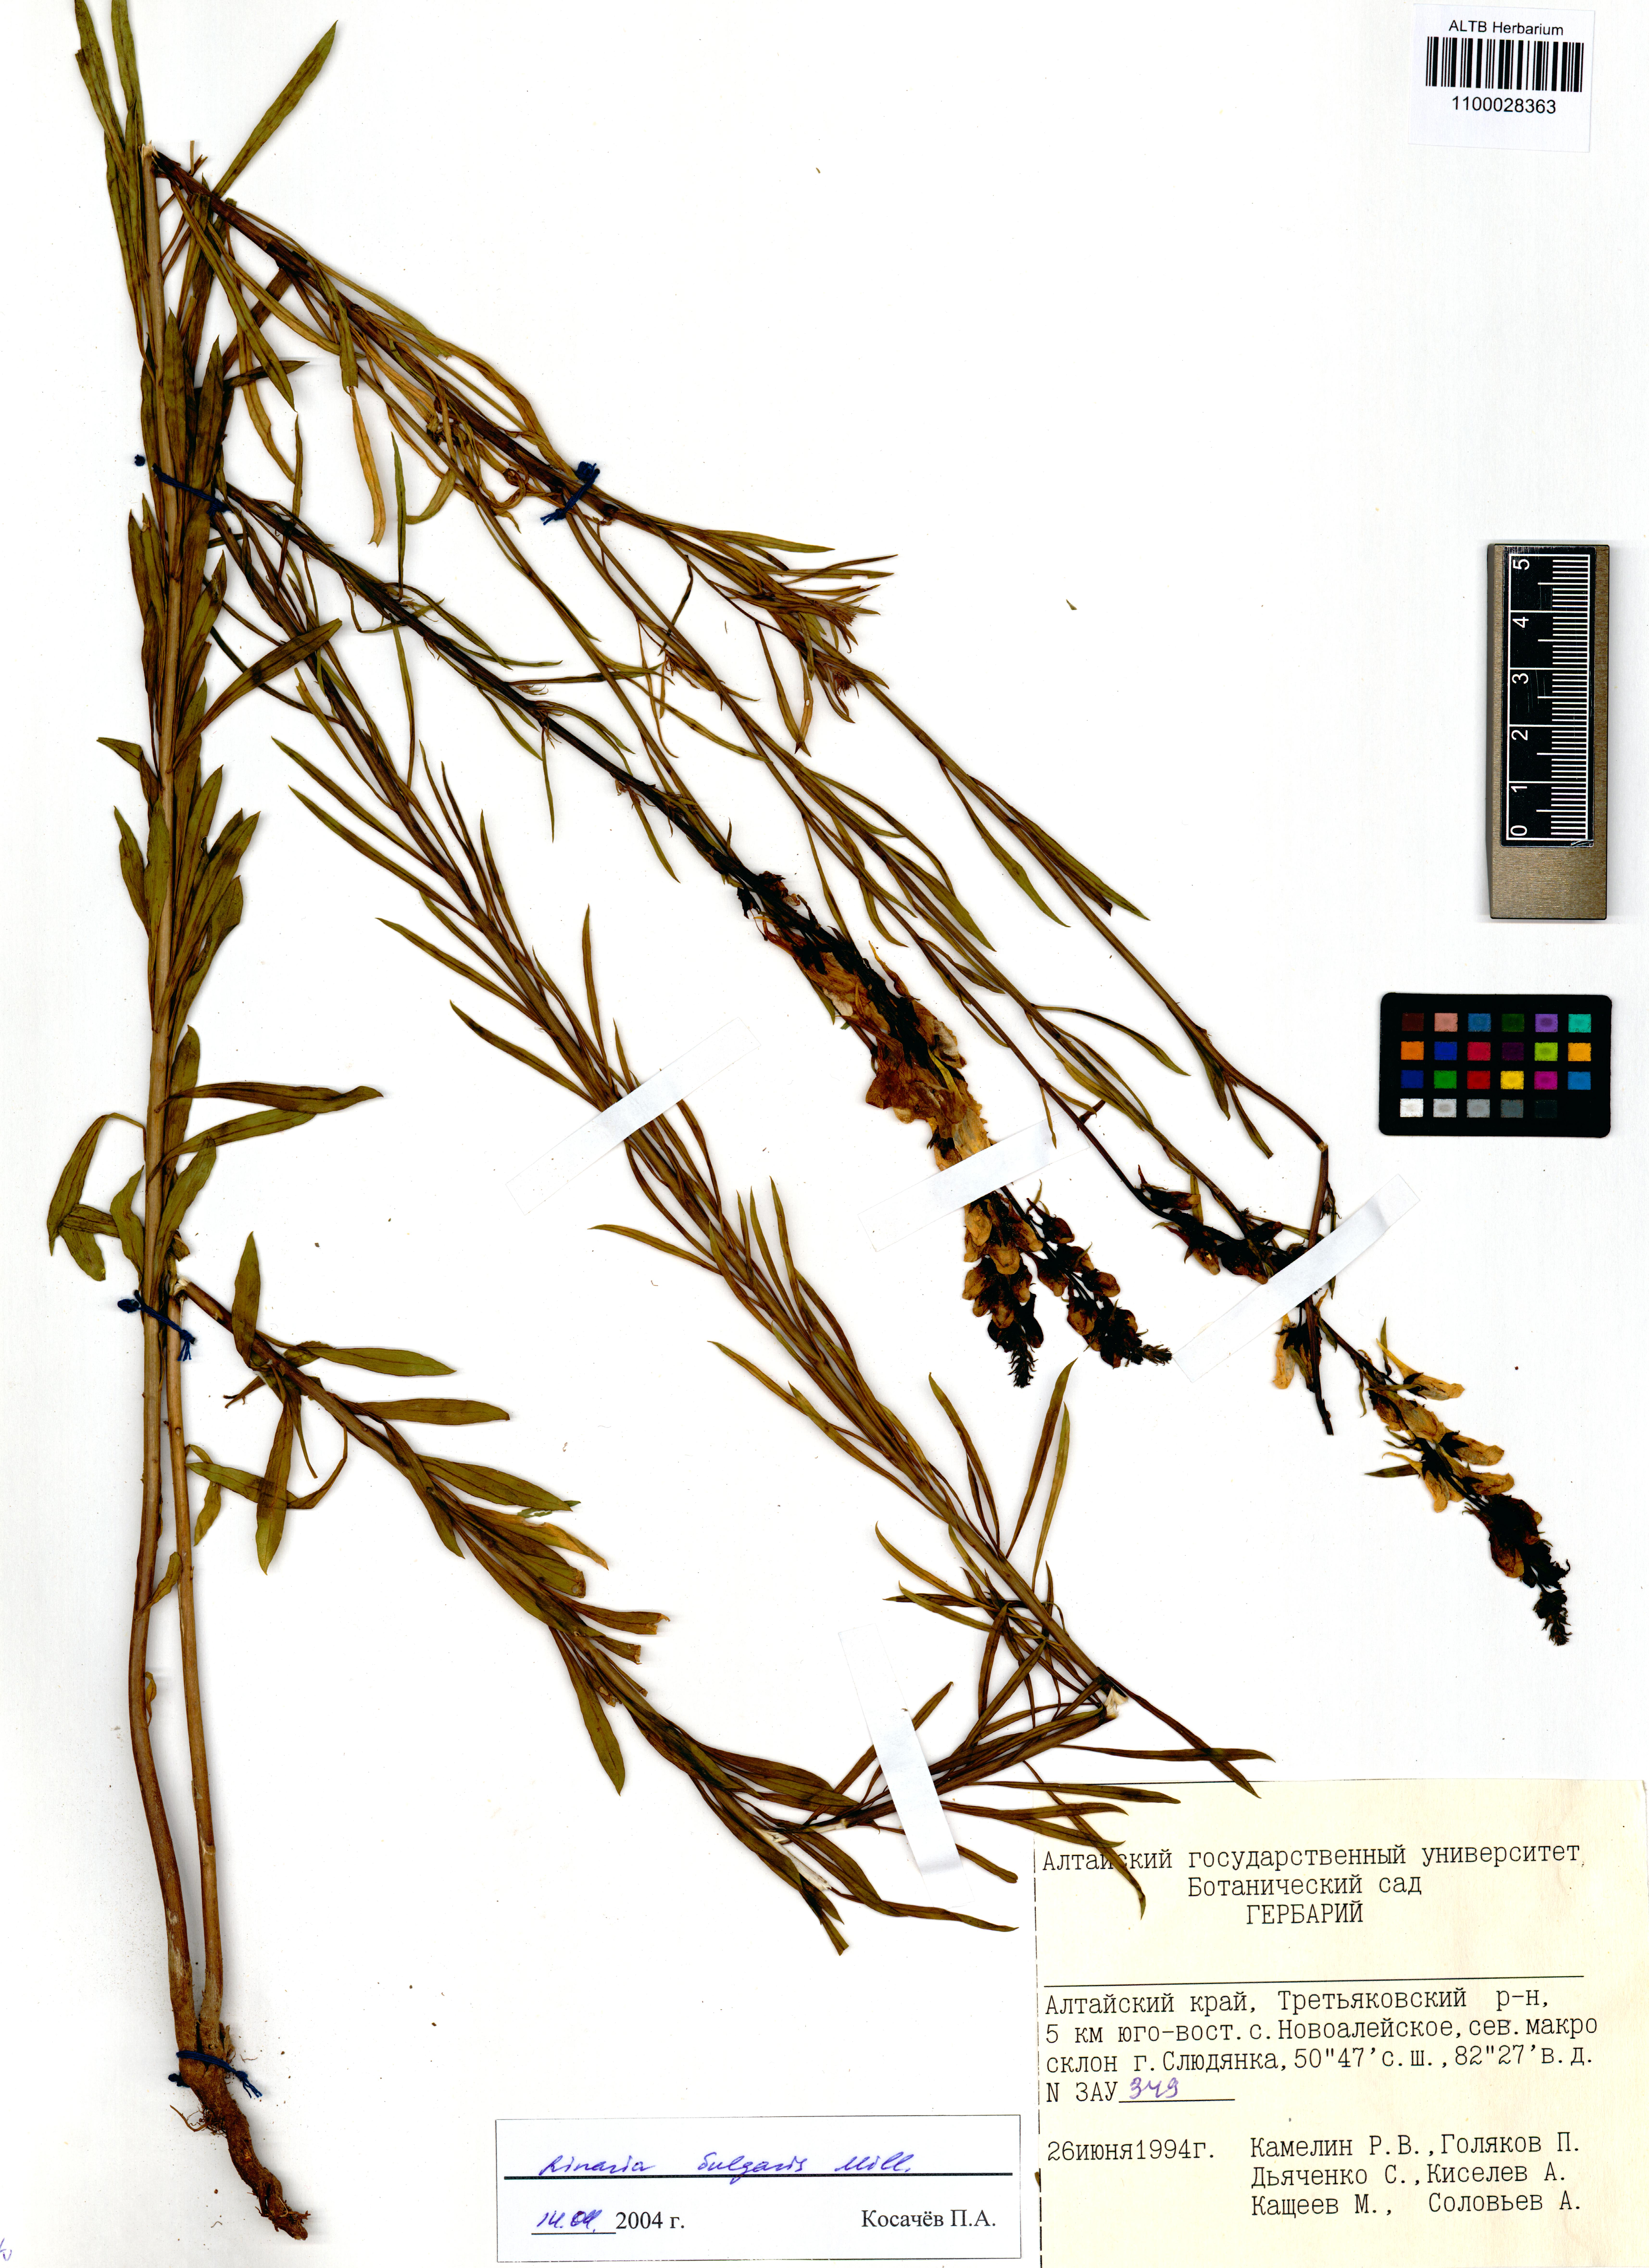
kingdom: Plantae
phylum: Tracheophyta
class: Magnoliopsida
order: Lamiales
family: Plantaginaceae
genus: Linaria
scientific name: Linaria vulgaris
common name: Butter and eggs
